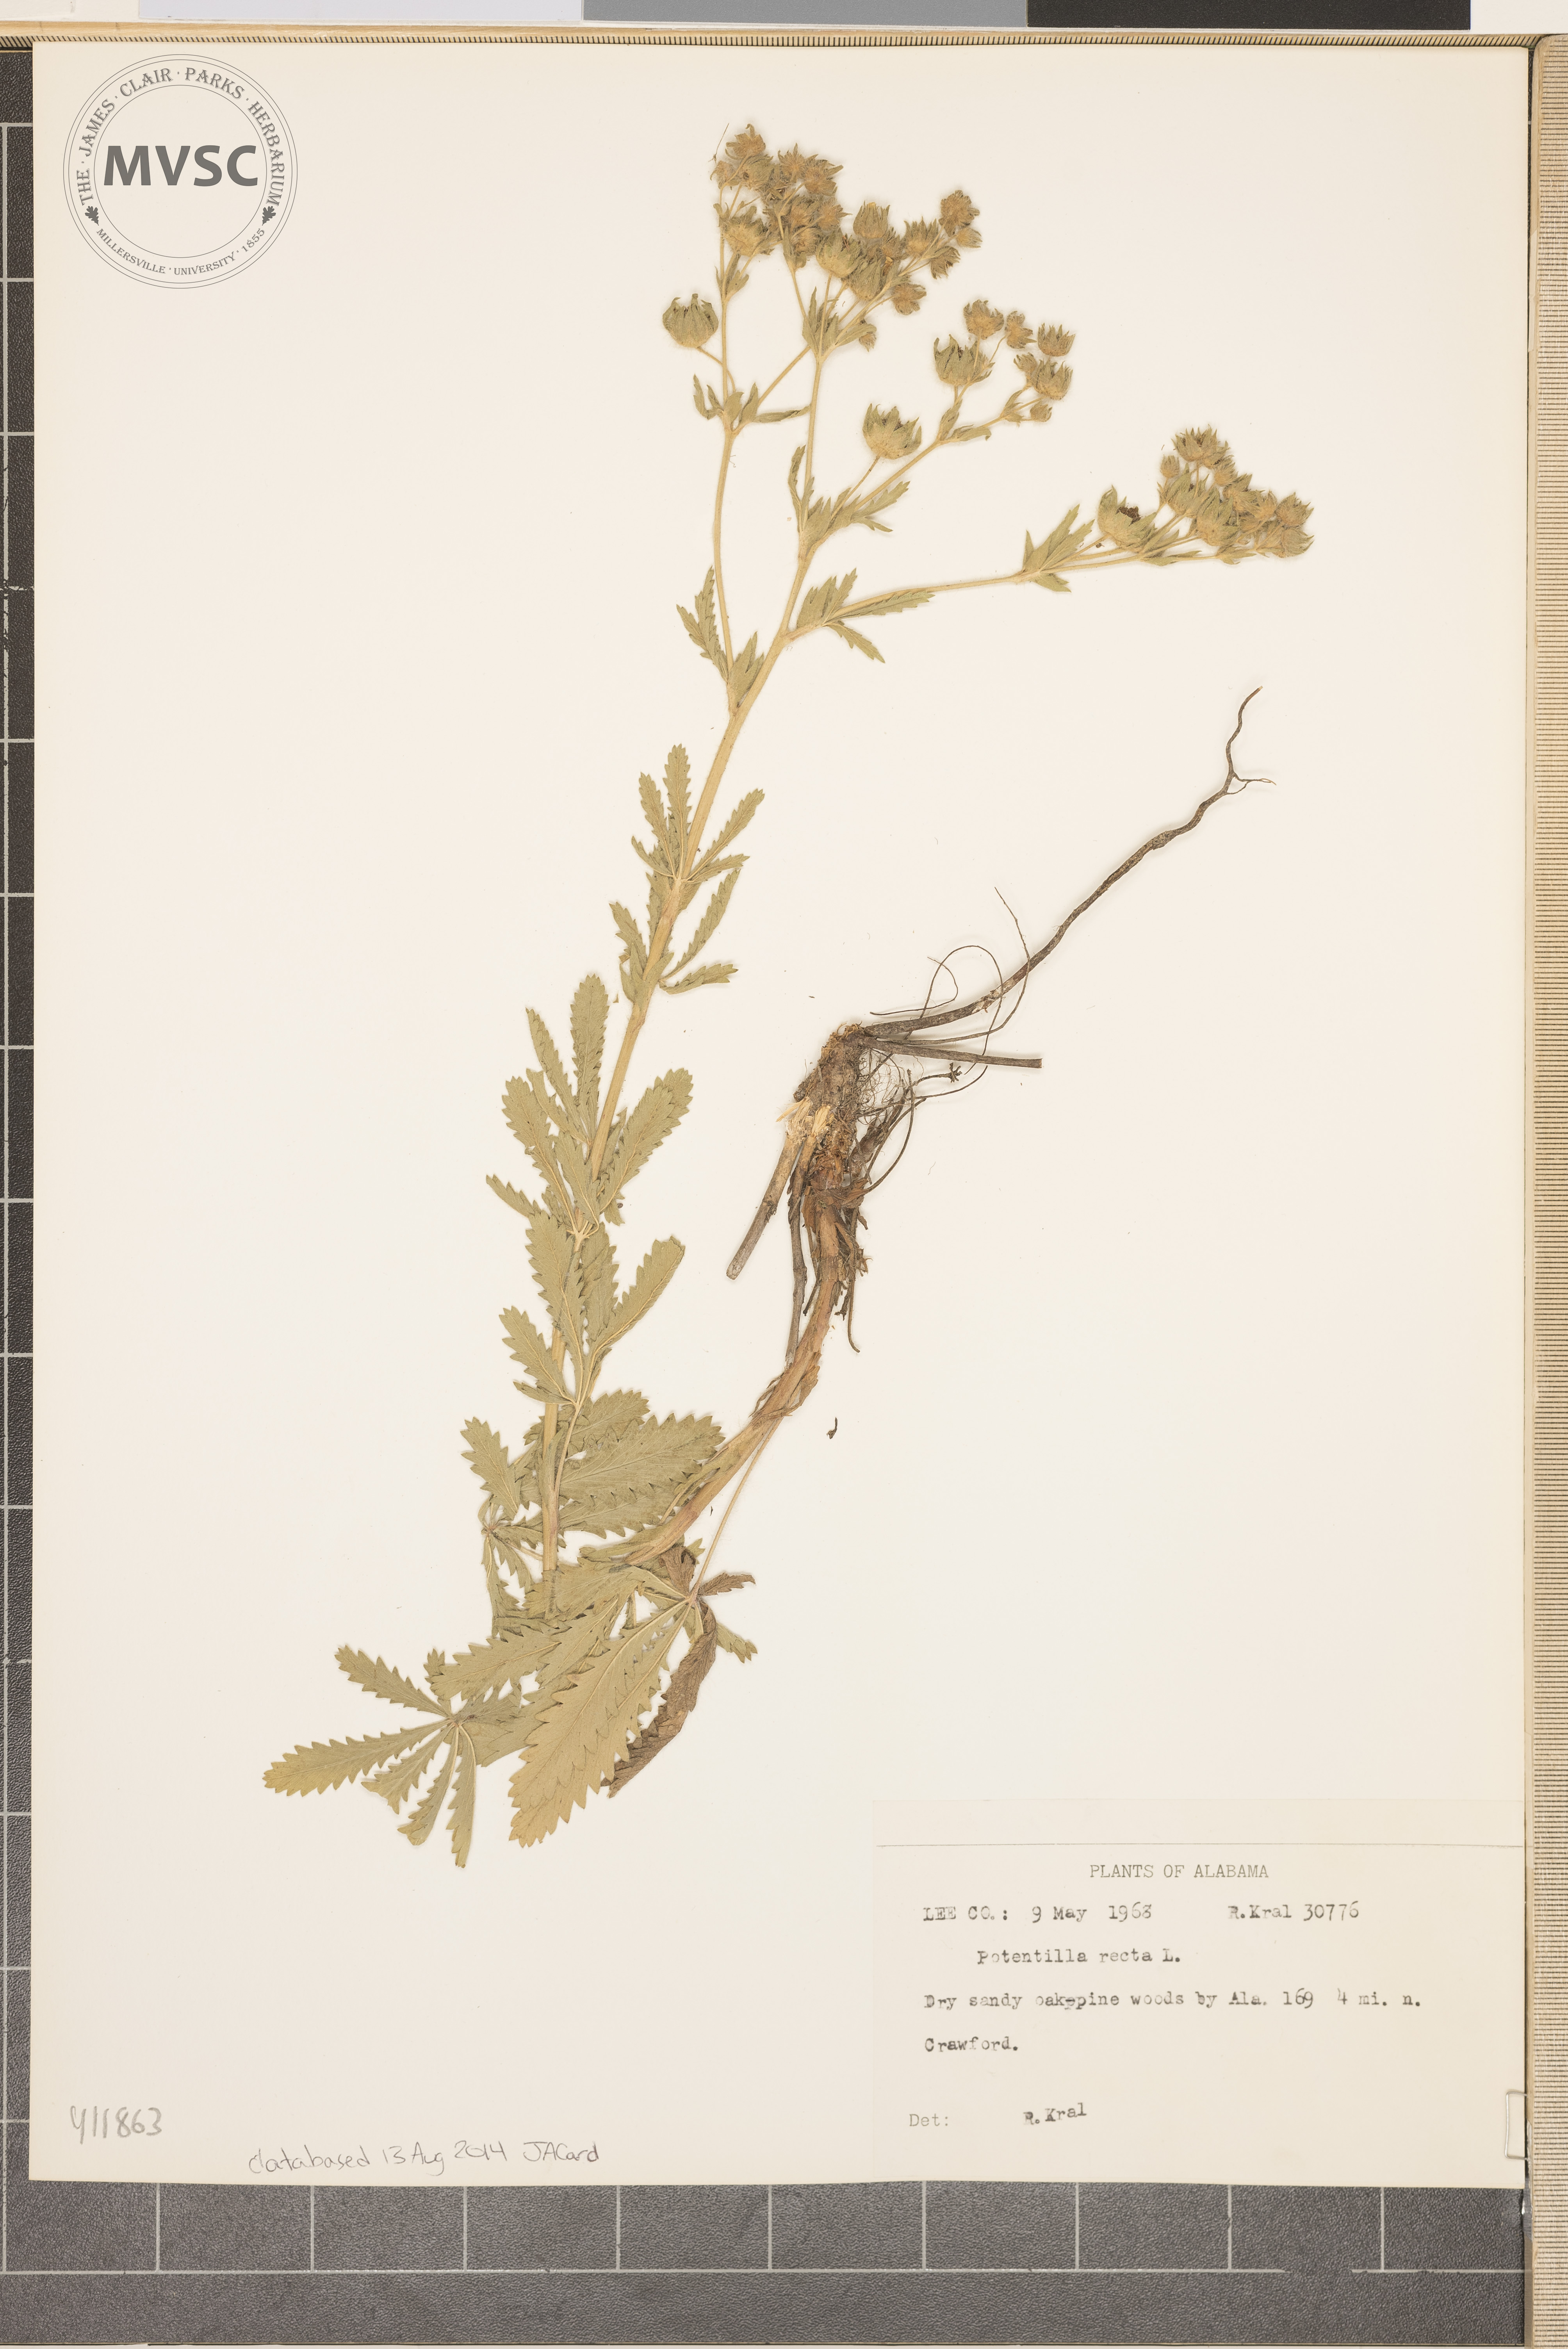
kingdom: Plantae
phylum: Tracheophyta
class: Magnoliopsida
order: Rosales
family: Rosaceae
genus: Potentilla
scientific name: Potentilla recta
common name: Sulphur cinquefoil
